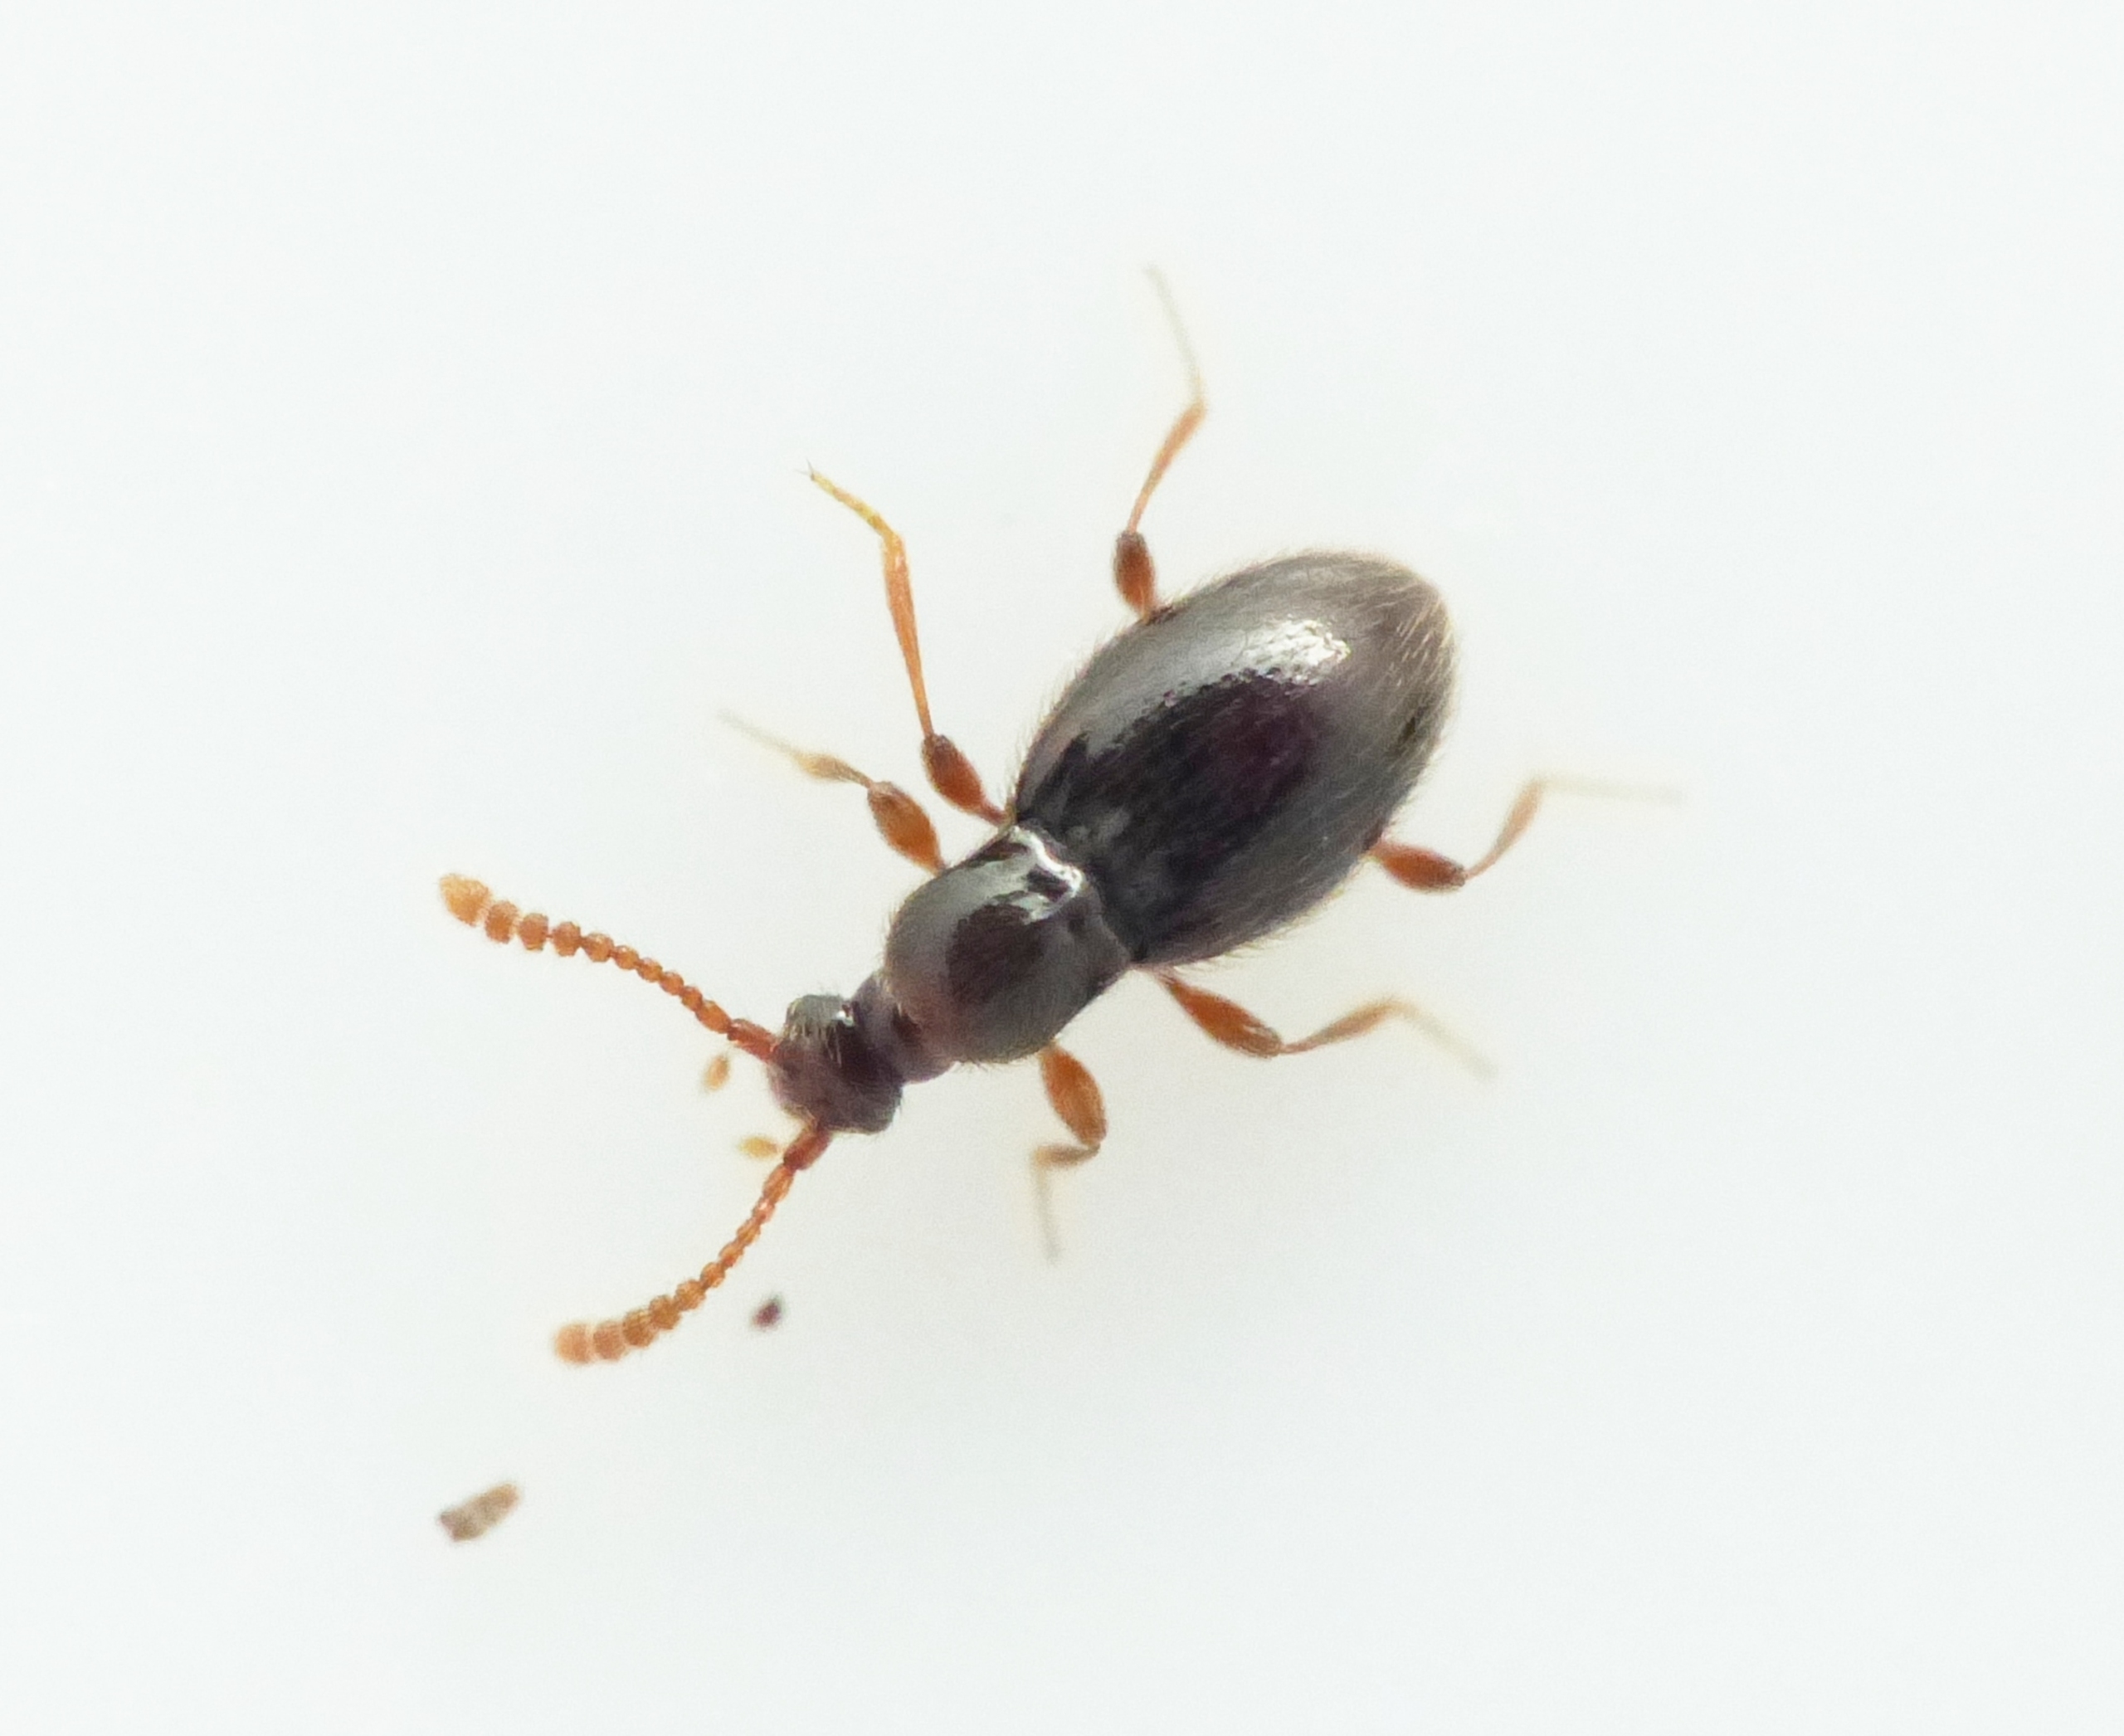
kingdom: Animalia
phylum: Arthropoda
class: Insecta
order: Coleoptera
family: Staphylinidae
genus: Neuraphes
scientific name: Neuraphes elongatulus
